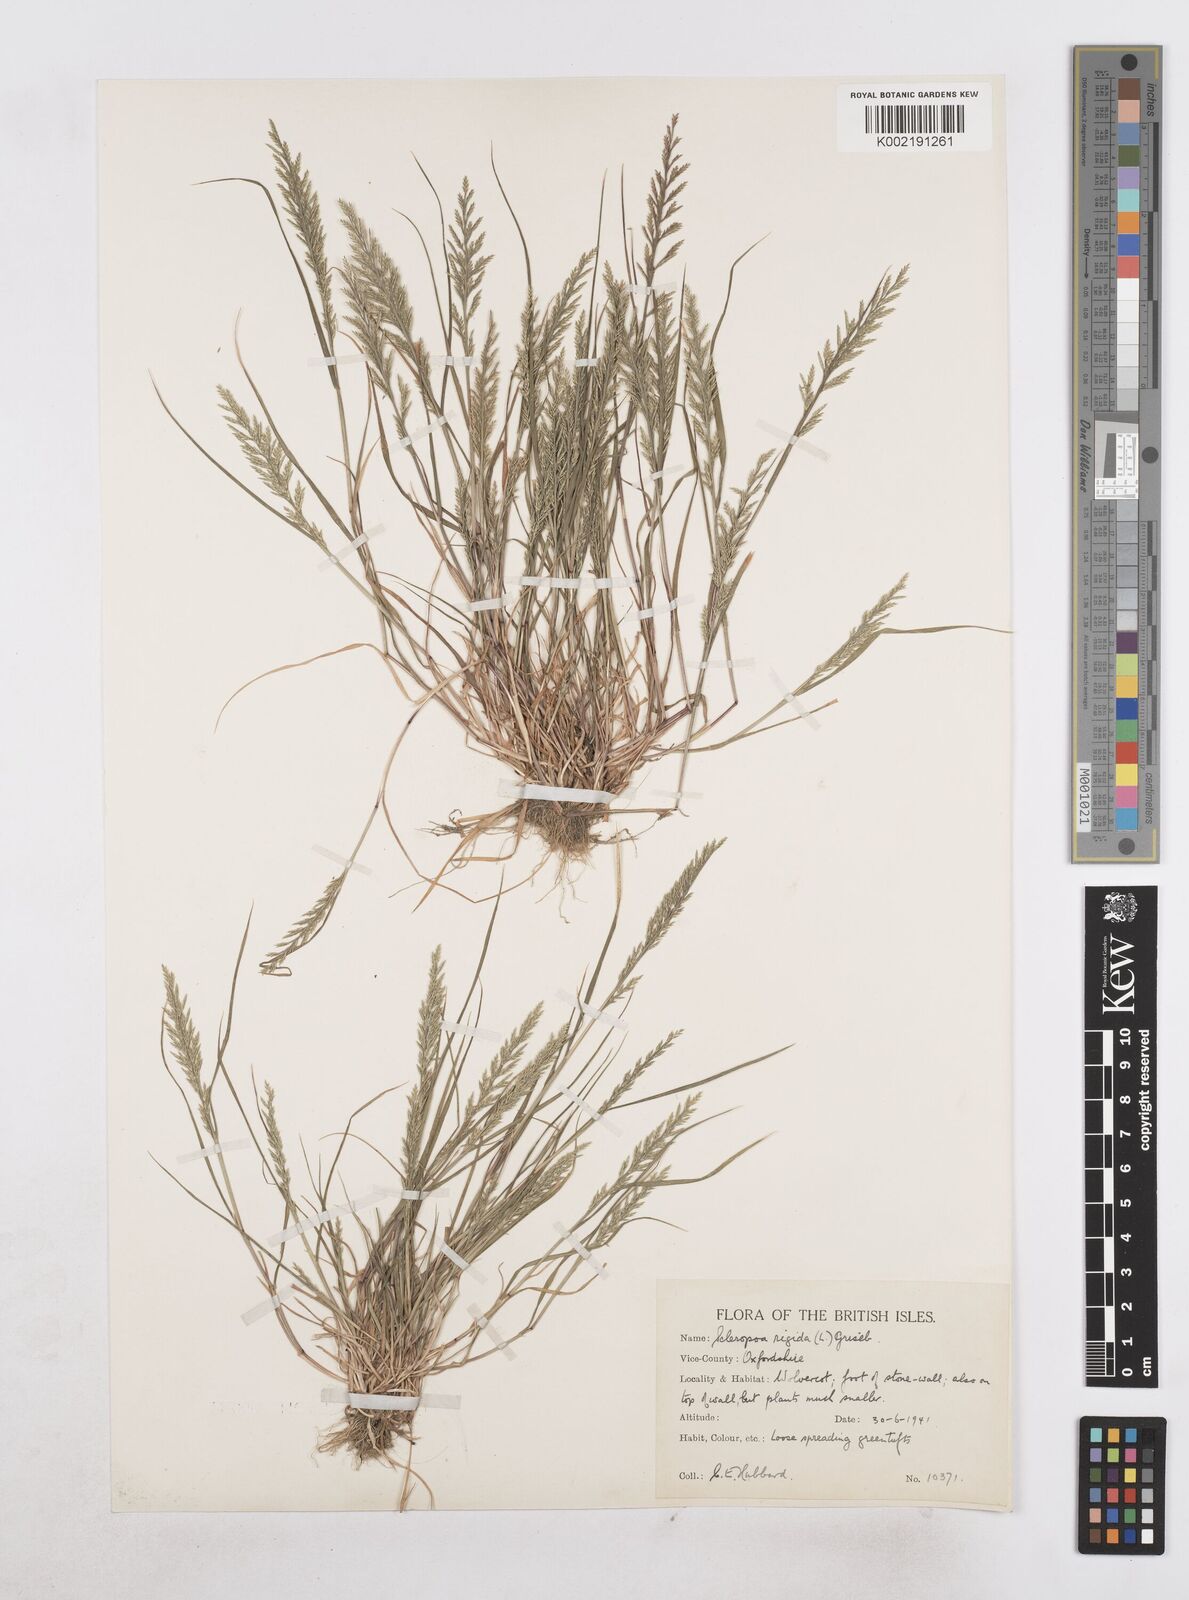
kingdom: Plantae
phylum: Tracheophyta
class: Liliopsida
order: Poales
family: Poaceae
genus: Catapodium
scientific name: Catapodium rigidum
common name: Fern-grass
